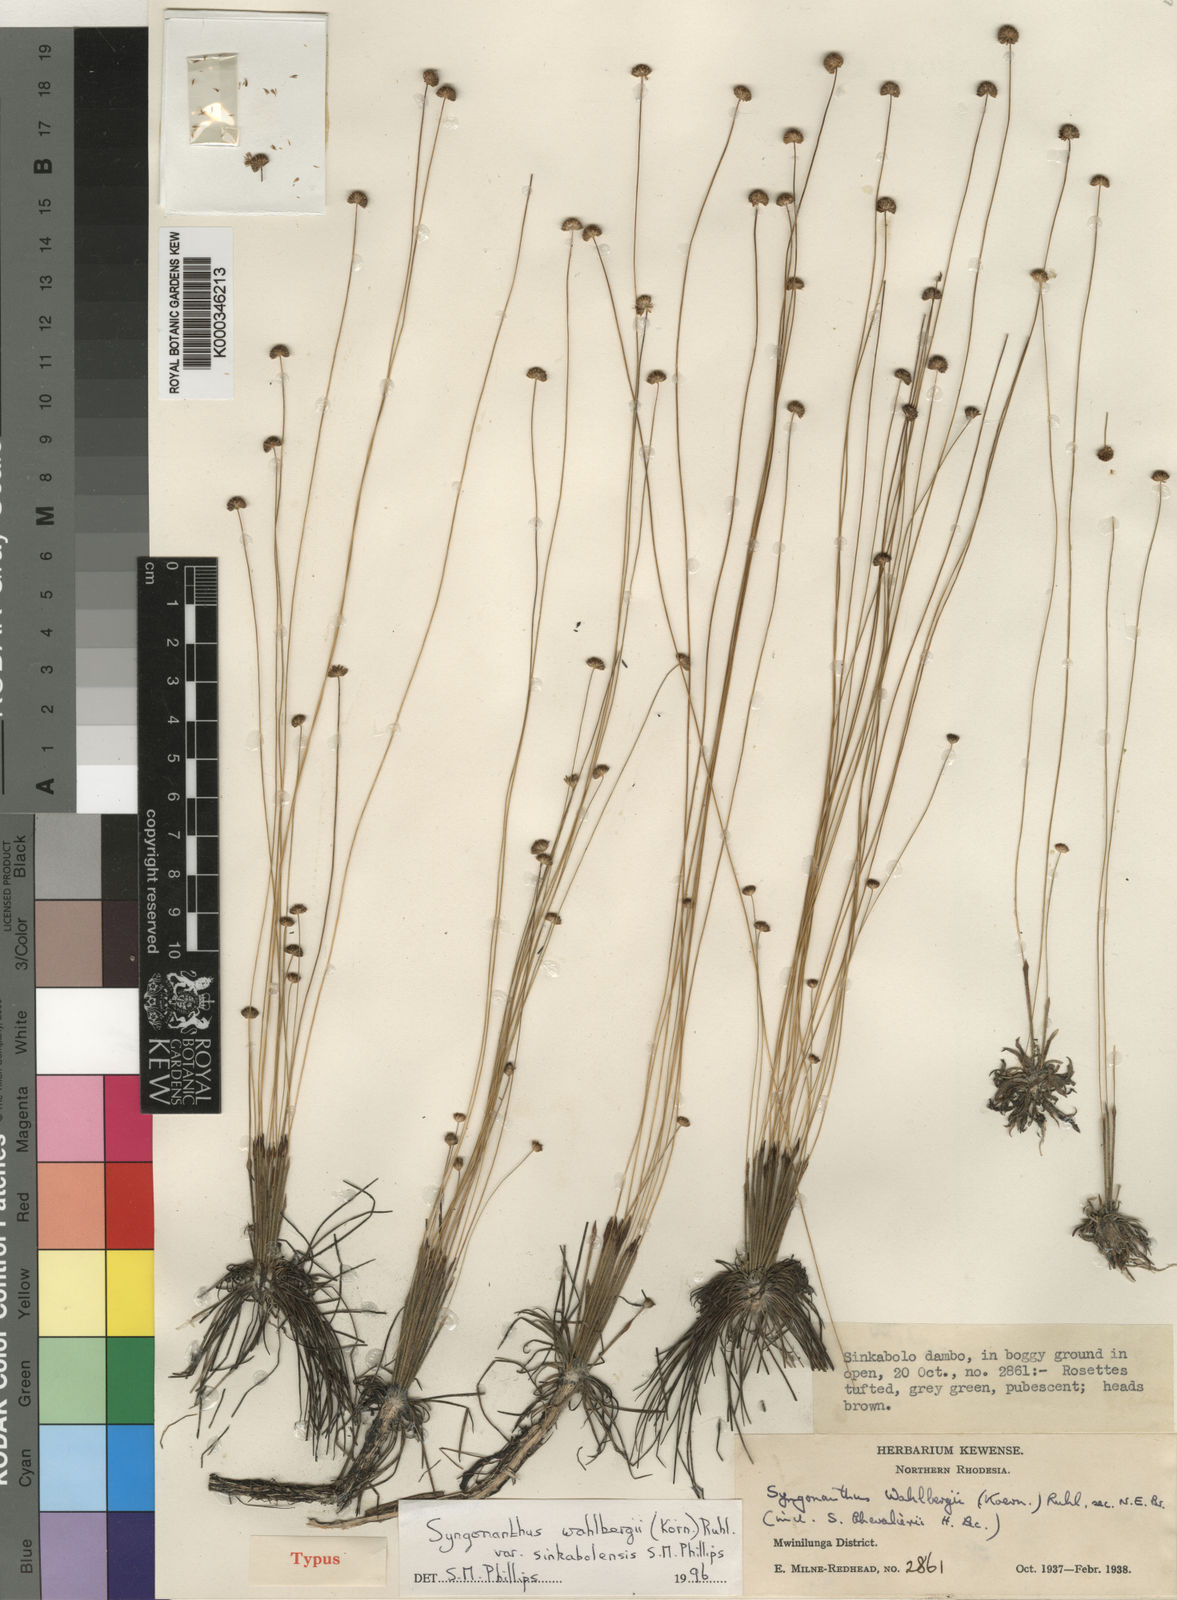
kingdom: Plantae
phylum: Tracheophyta
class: Liliopsida
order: Poales
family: Eriocaulaceae
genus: Syngonanthus
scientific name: Syngonanthus wahlbergii
